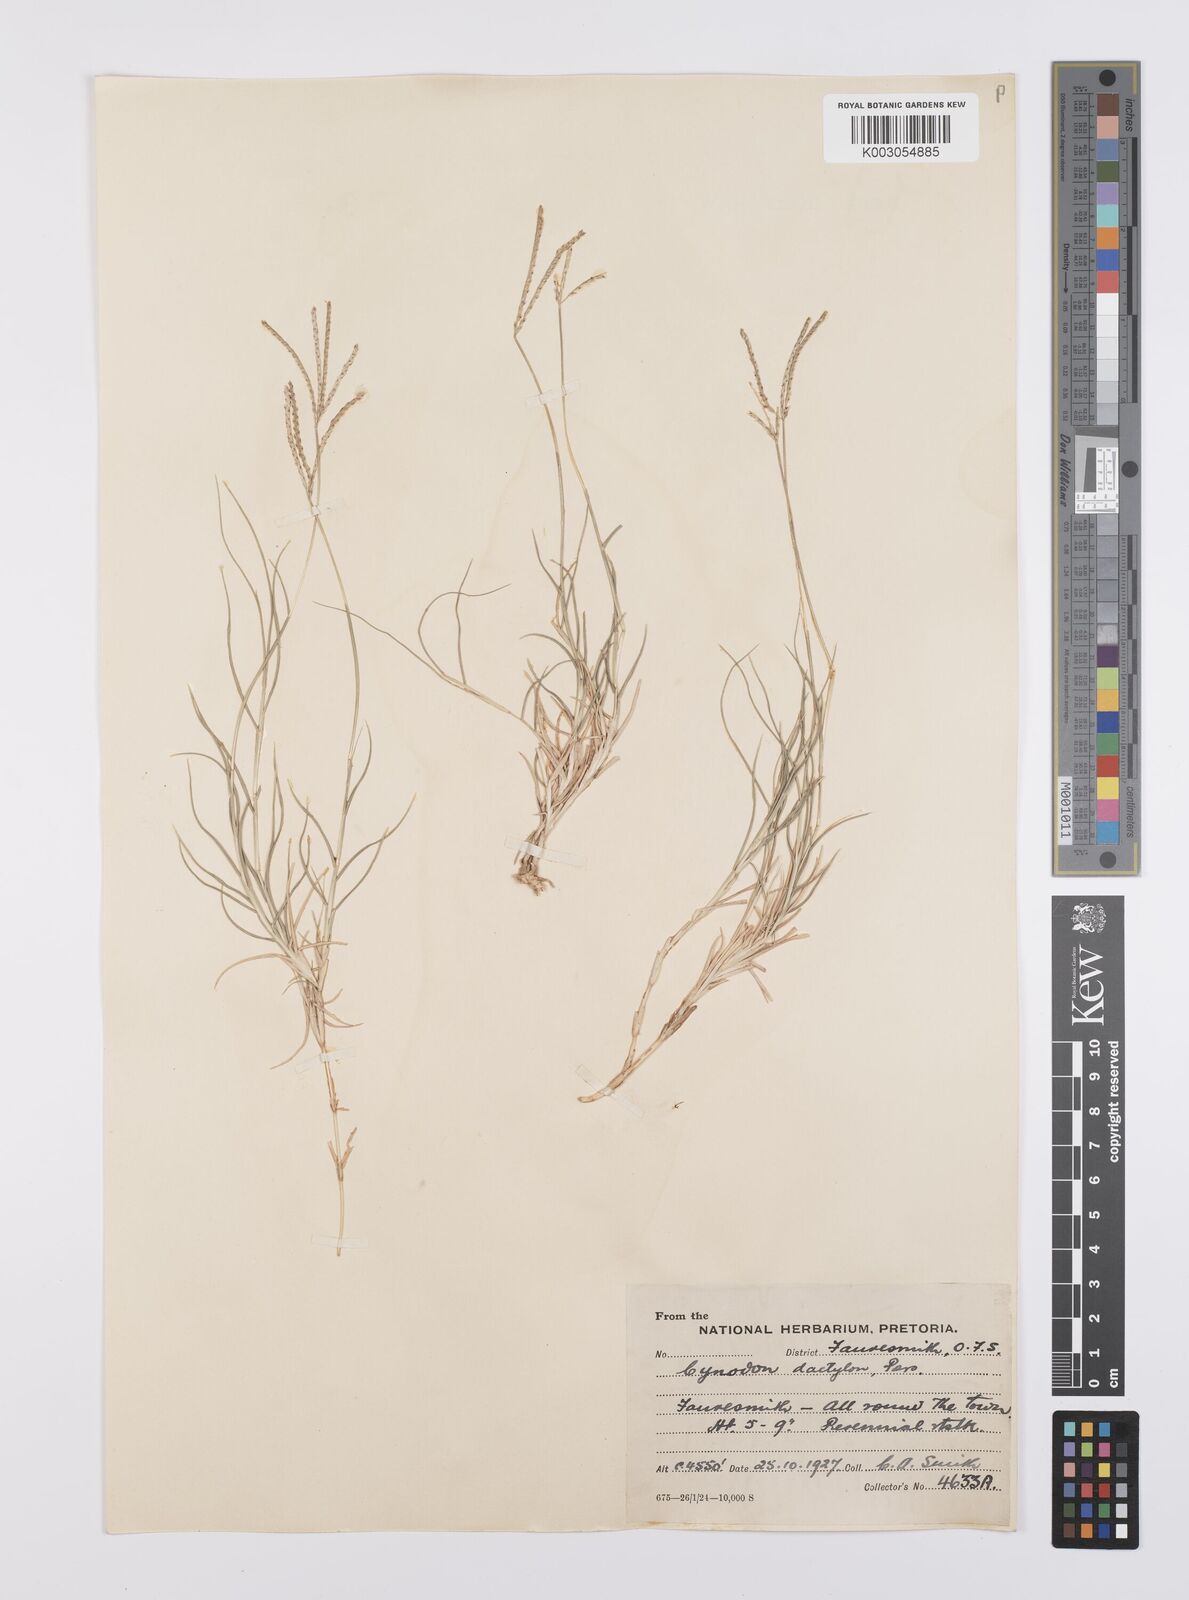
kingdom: Plantae
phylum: Tracheophyta
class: Liliopsida
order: Poales
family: Poaceae
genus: Cynodon
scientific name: Cynodon dactylon
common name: Bermuda grass
